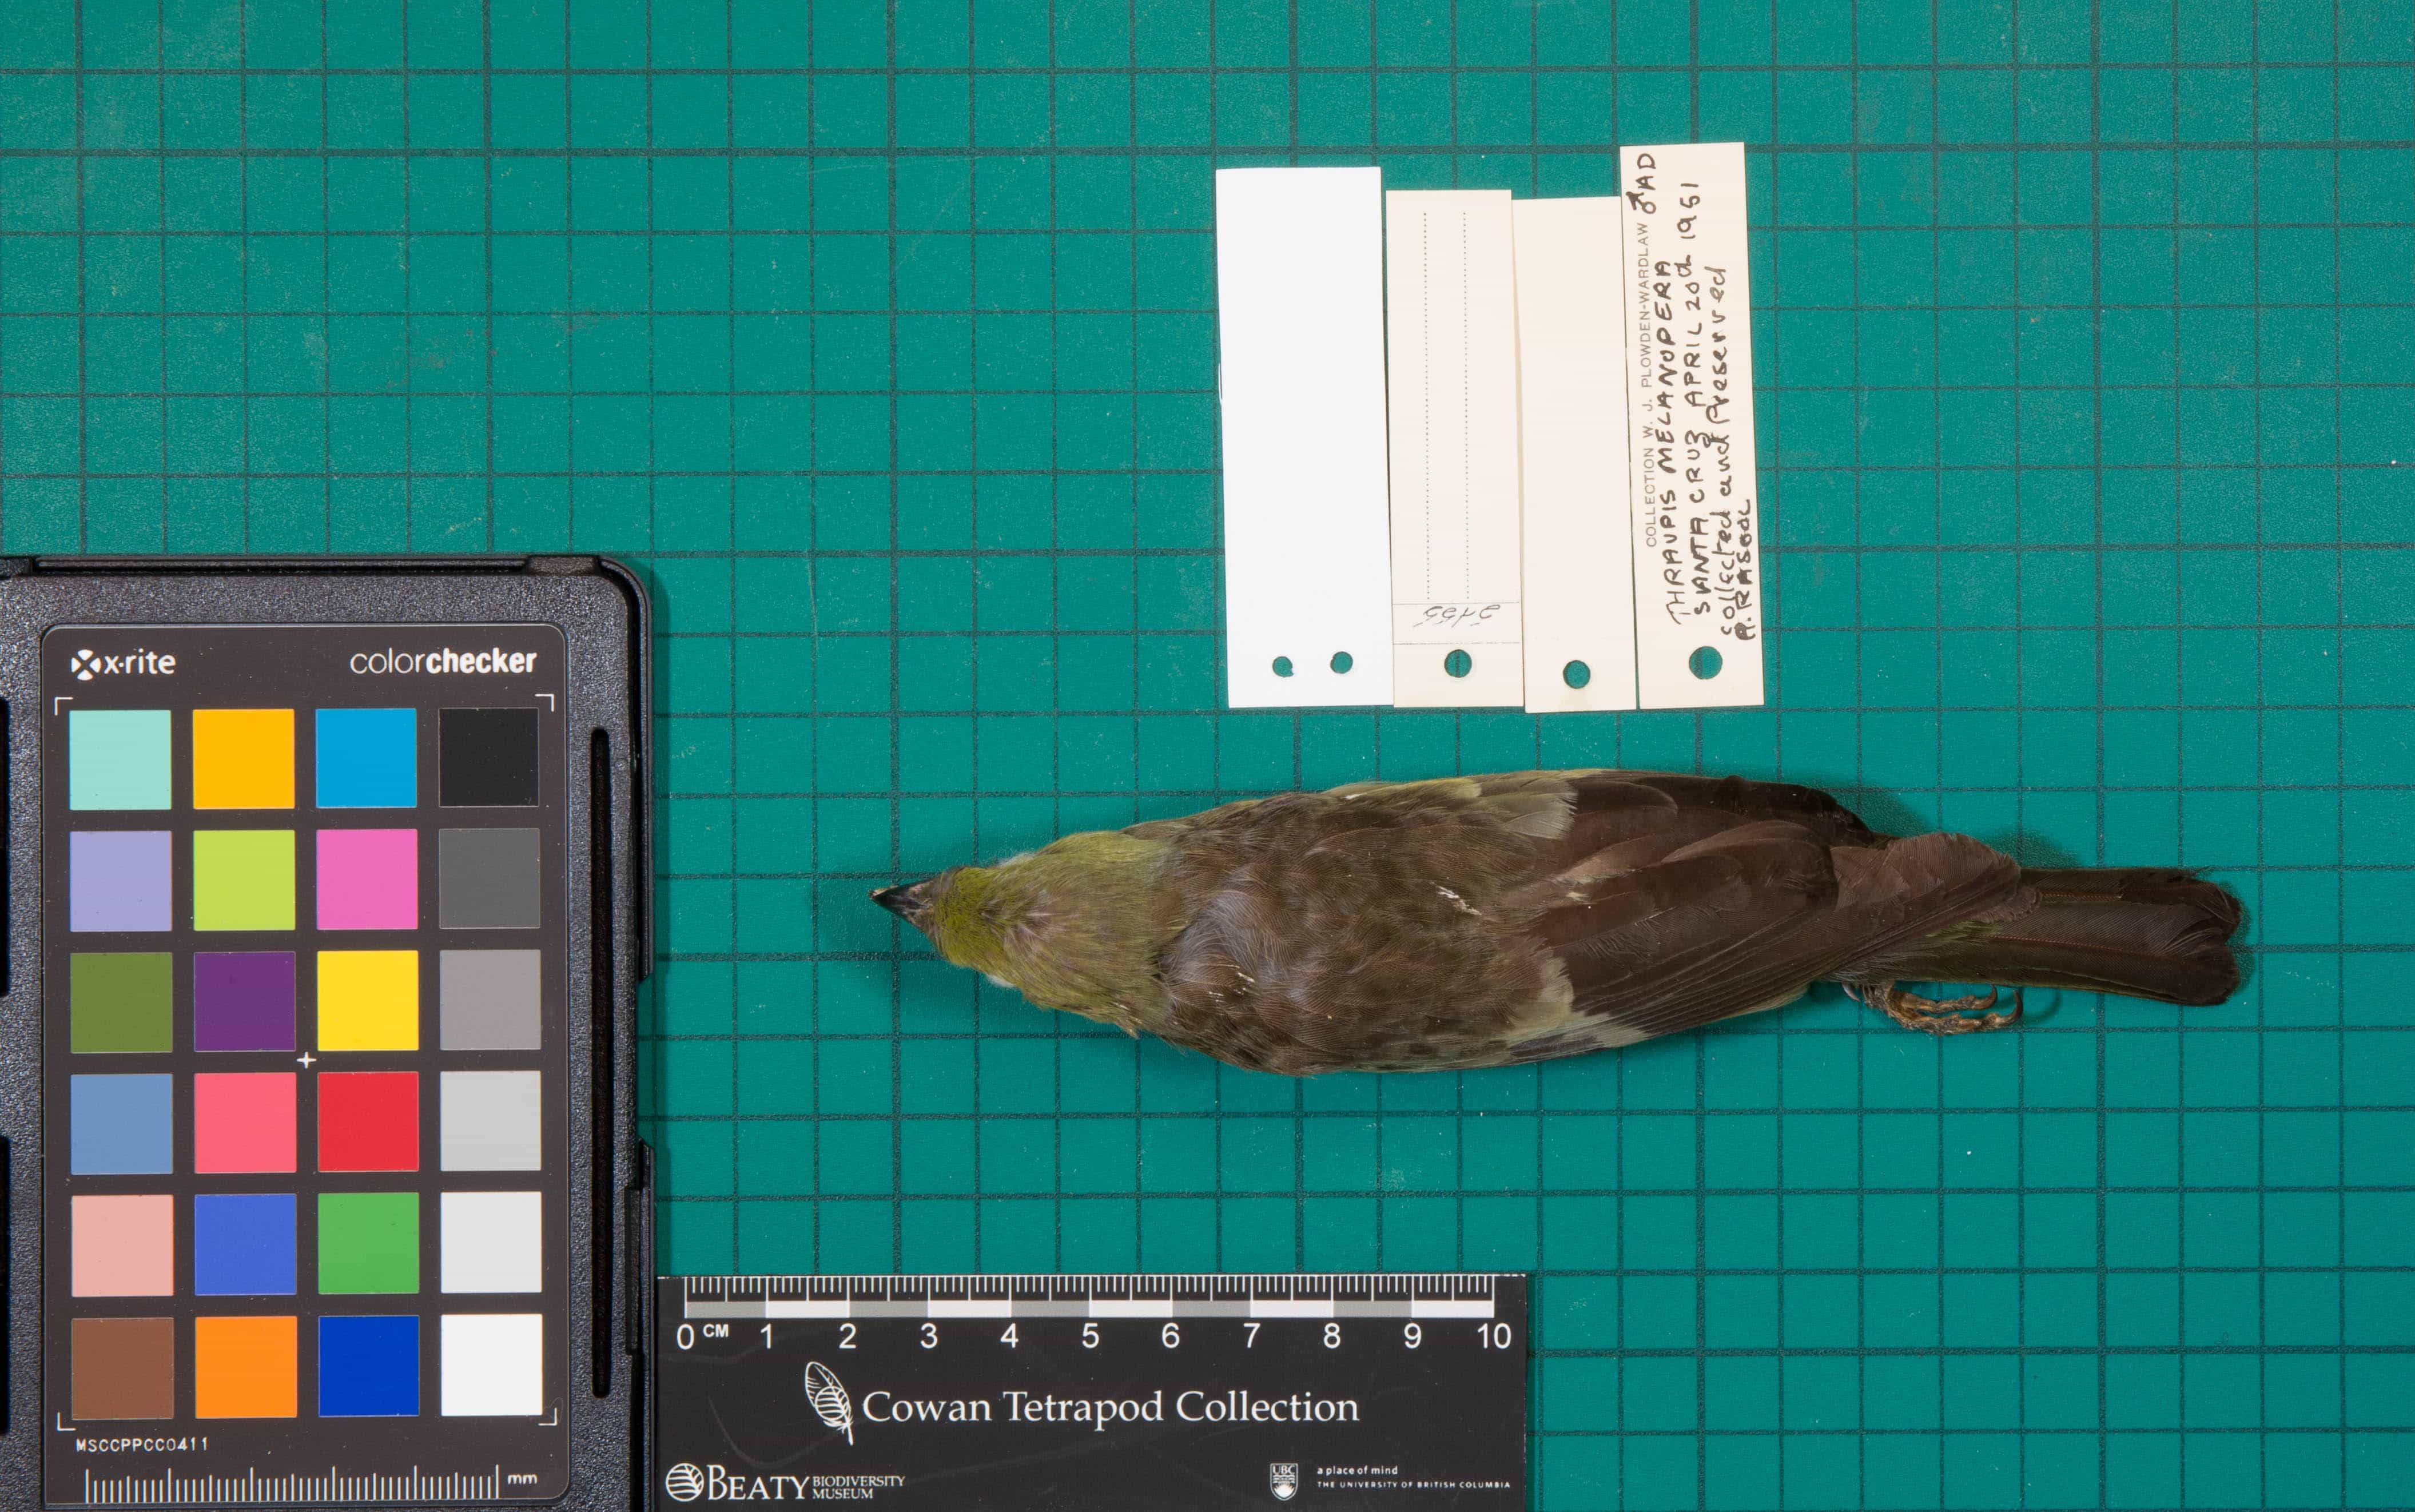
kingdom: Animalia
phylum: Chordata
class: Aves
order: Passeriformes
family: Thraupidae
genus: Thraupis
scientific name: Thraupis palmarum
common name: Palm Tanager
